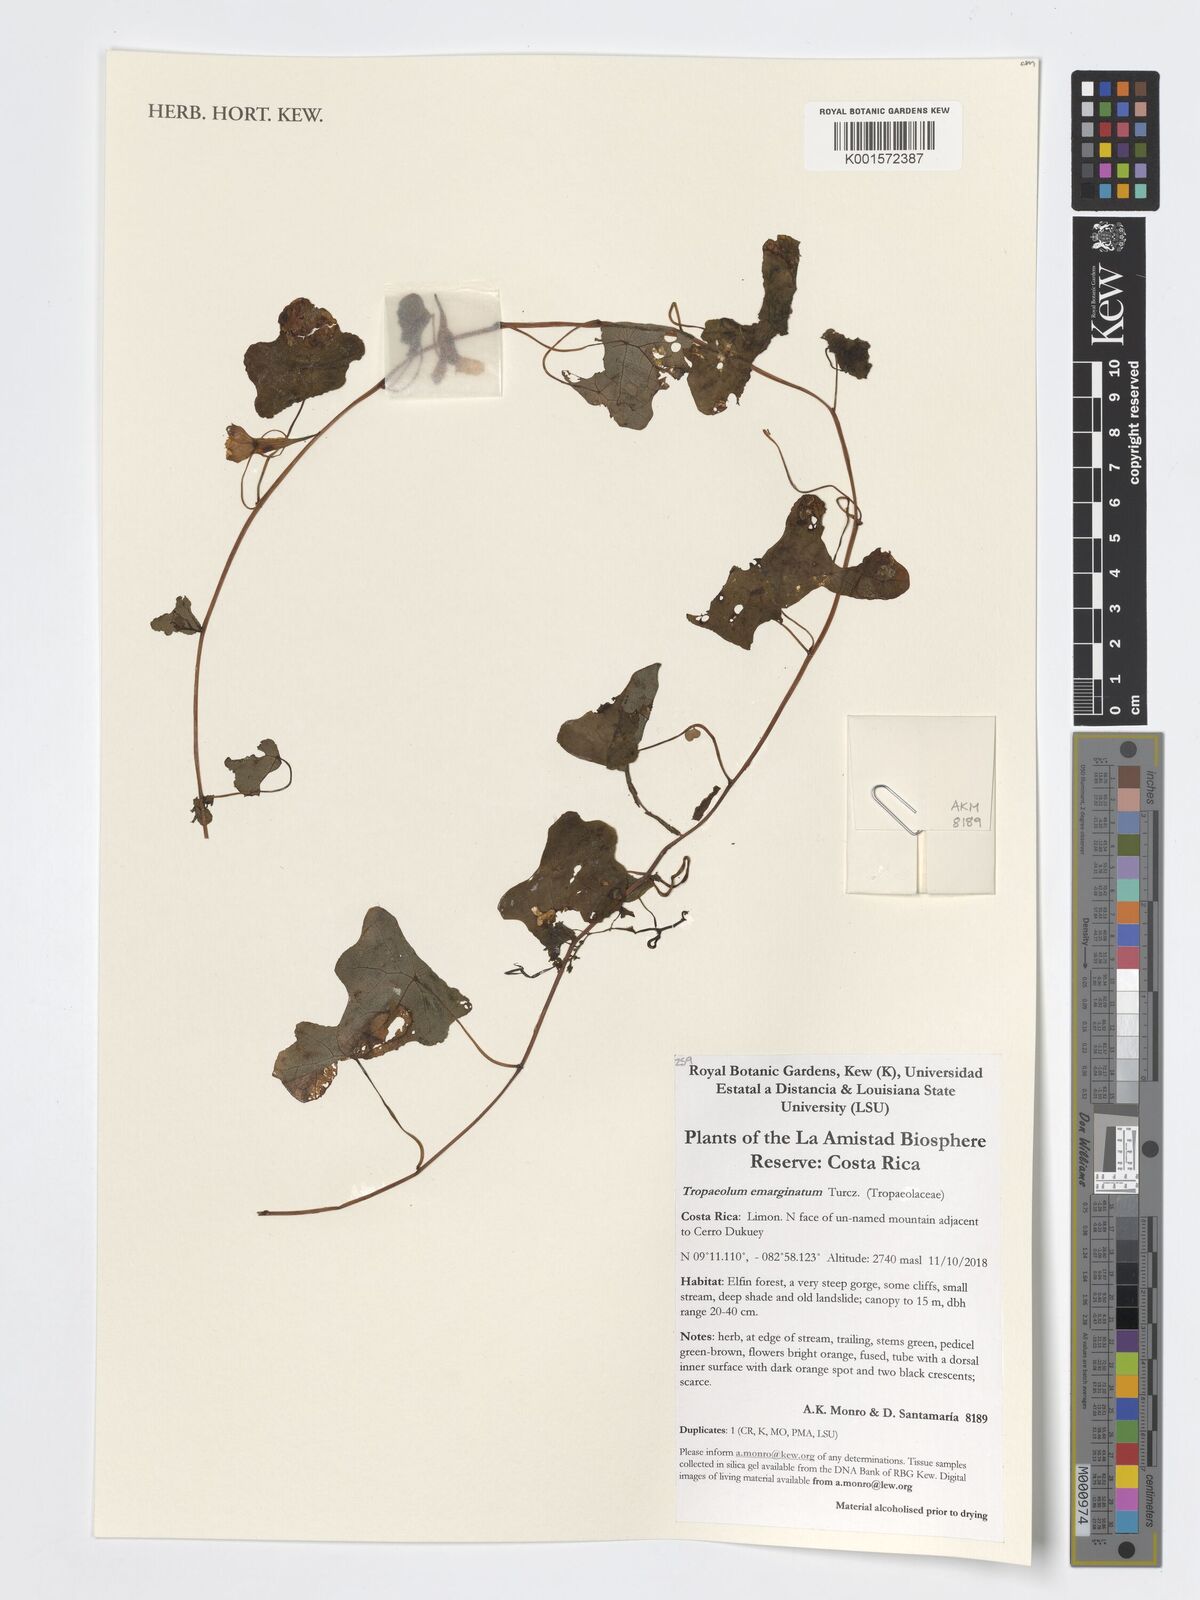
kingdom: Plantae
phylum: Tracheophyta
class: Magnoliopsida
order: Brassicales
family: Tropaeolaceae
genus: Tropaeolum
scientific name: Tropaeolum emarginatum
